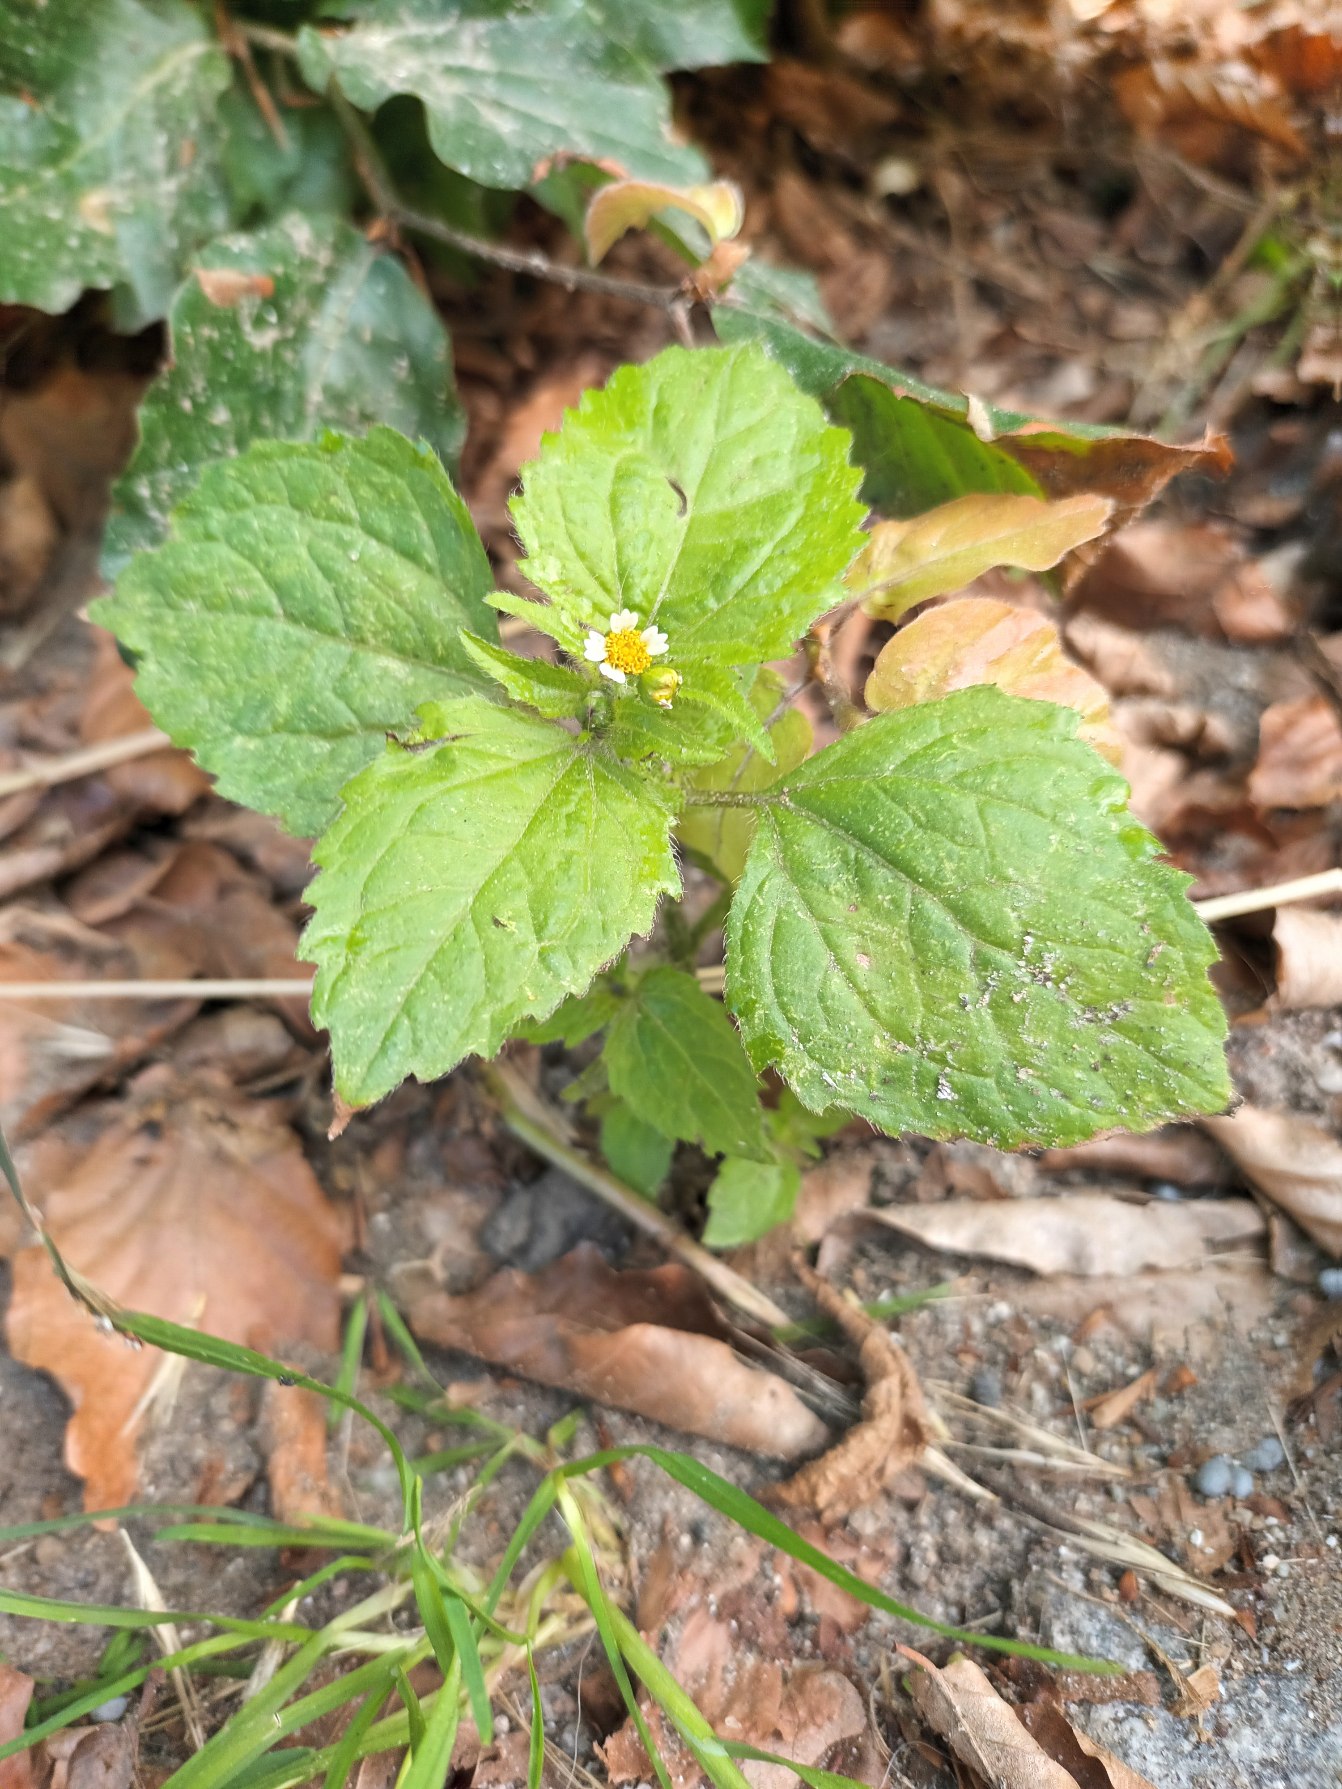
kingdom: Plantae
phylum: Tracheophyta
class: Magnoliopsida
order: Asterales
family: Asteraceae
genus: Galinsoga
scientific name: Galinsoga quadriradiata
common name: Kirtel-kortstråle
